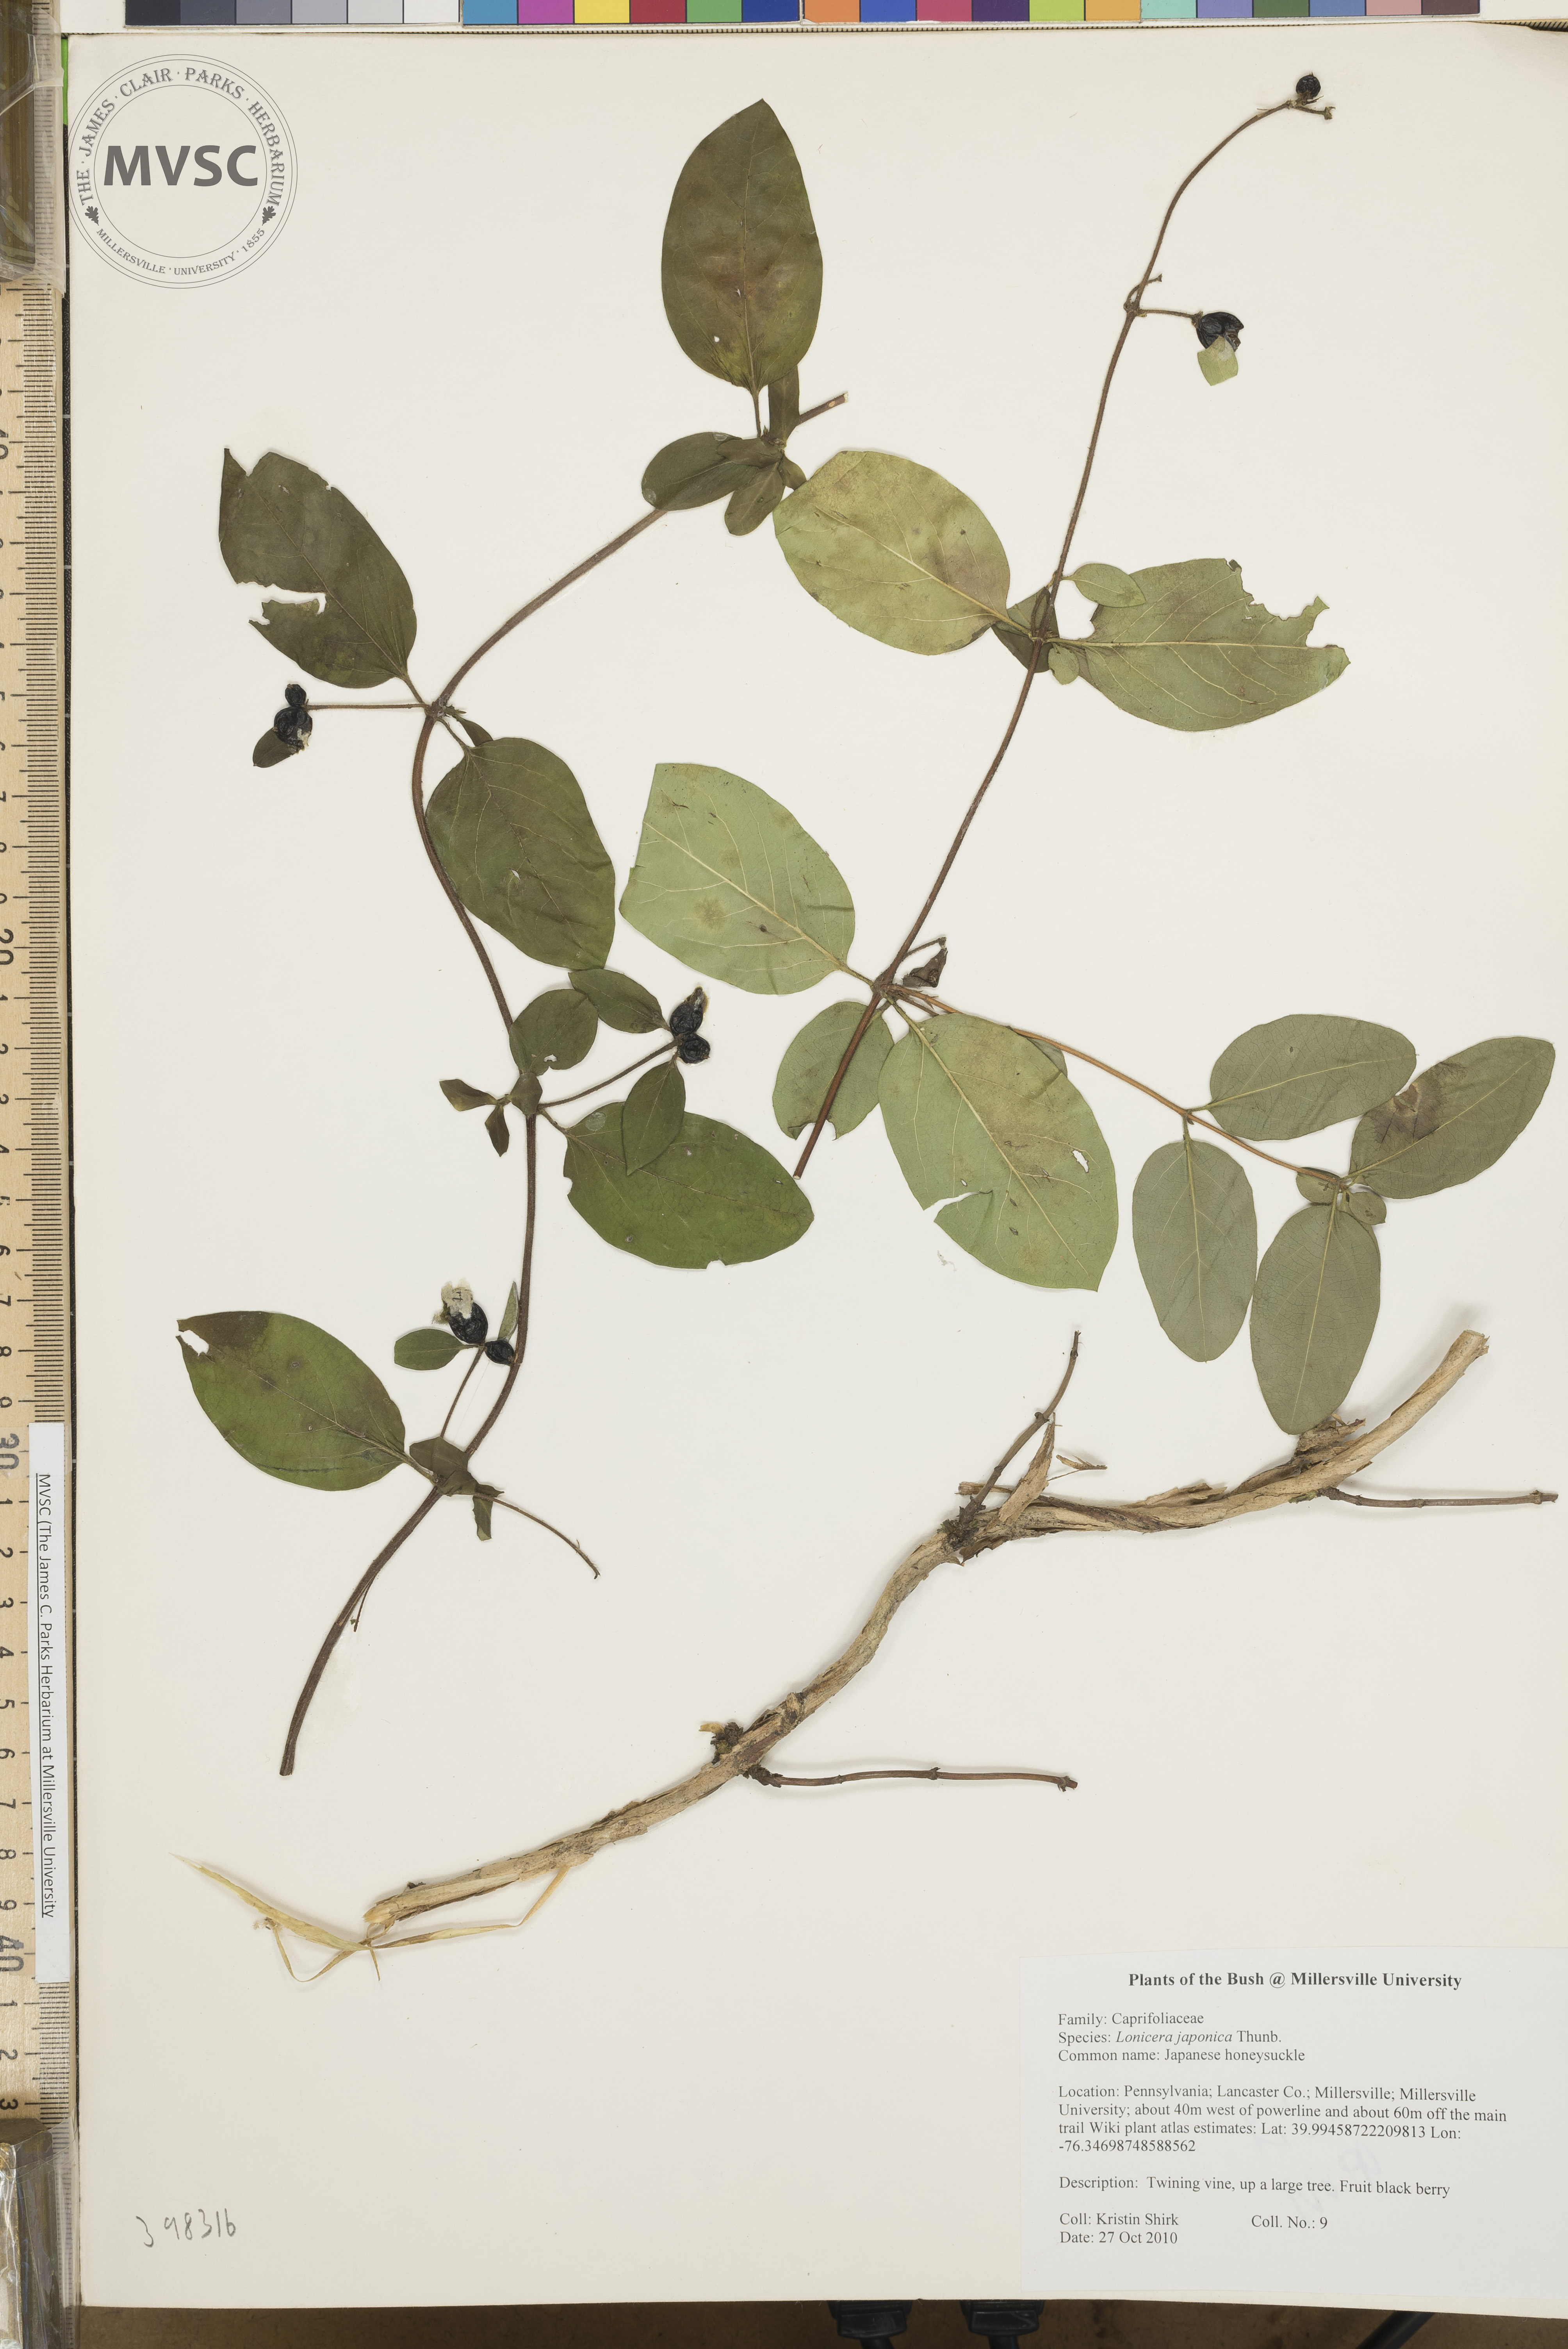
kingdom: Plantae
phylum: Tracheophyta
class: Magnoliopsida
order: Dipsacales
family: Caprifoliaceae
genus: Lonicera
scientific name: Lonicera japonica
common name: Japanese honeysuckle
